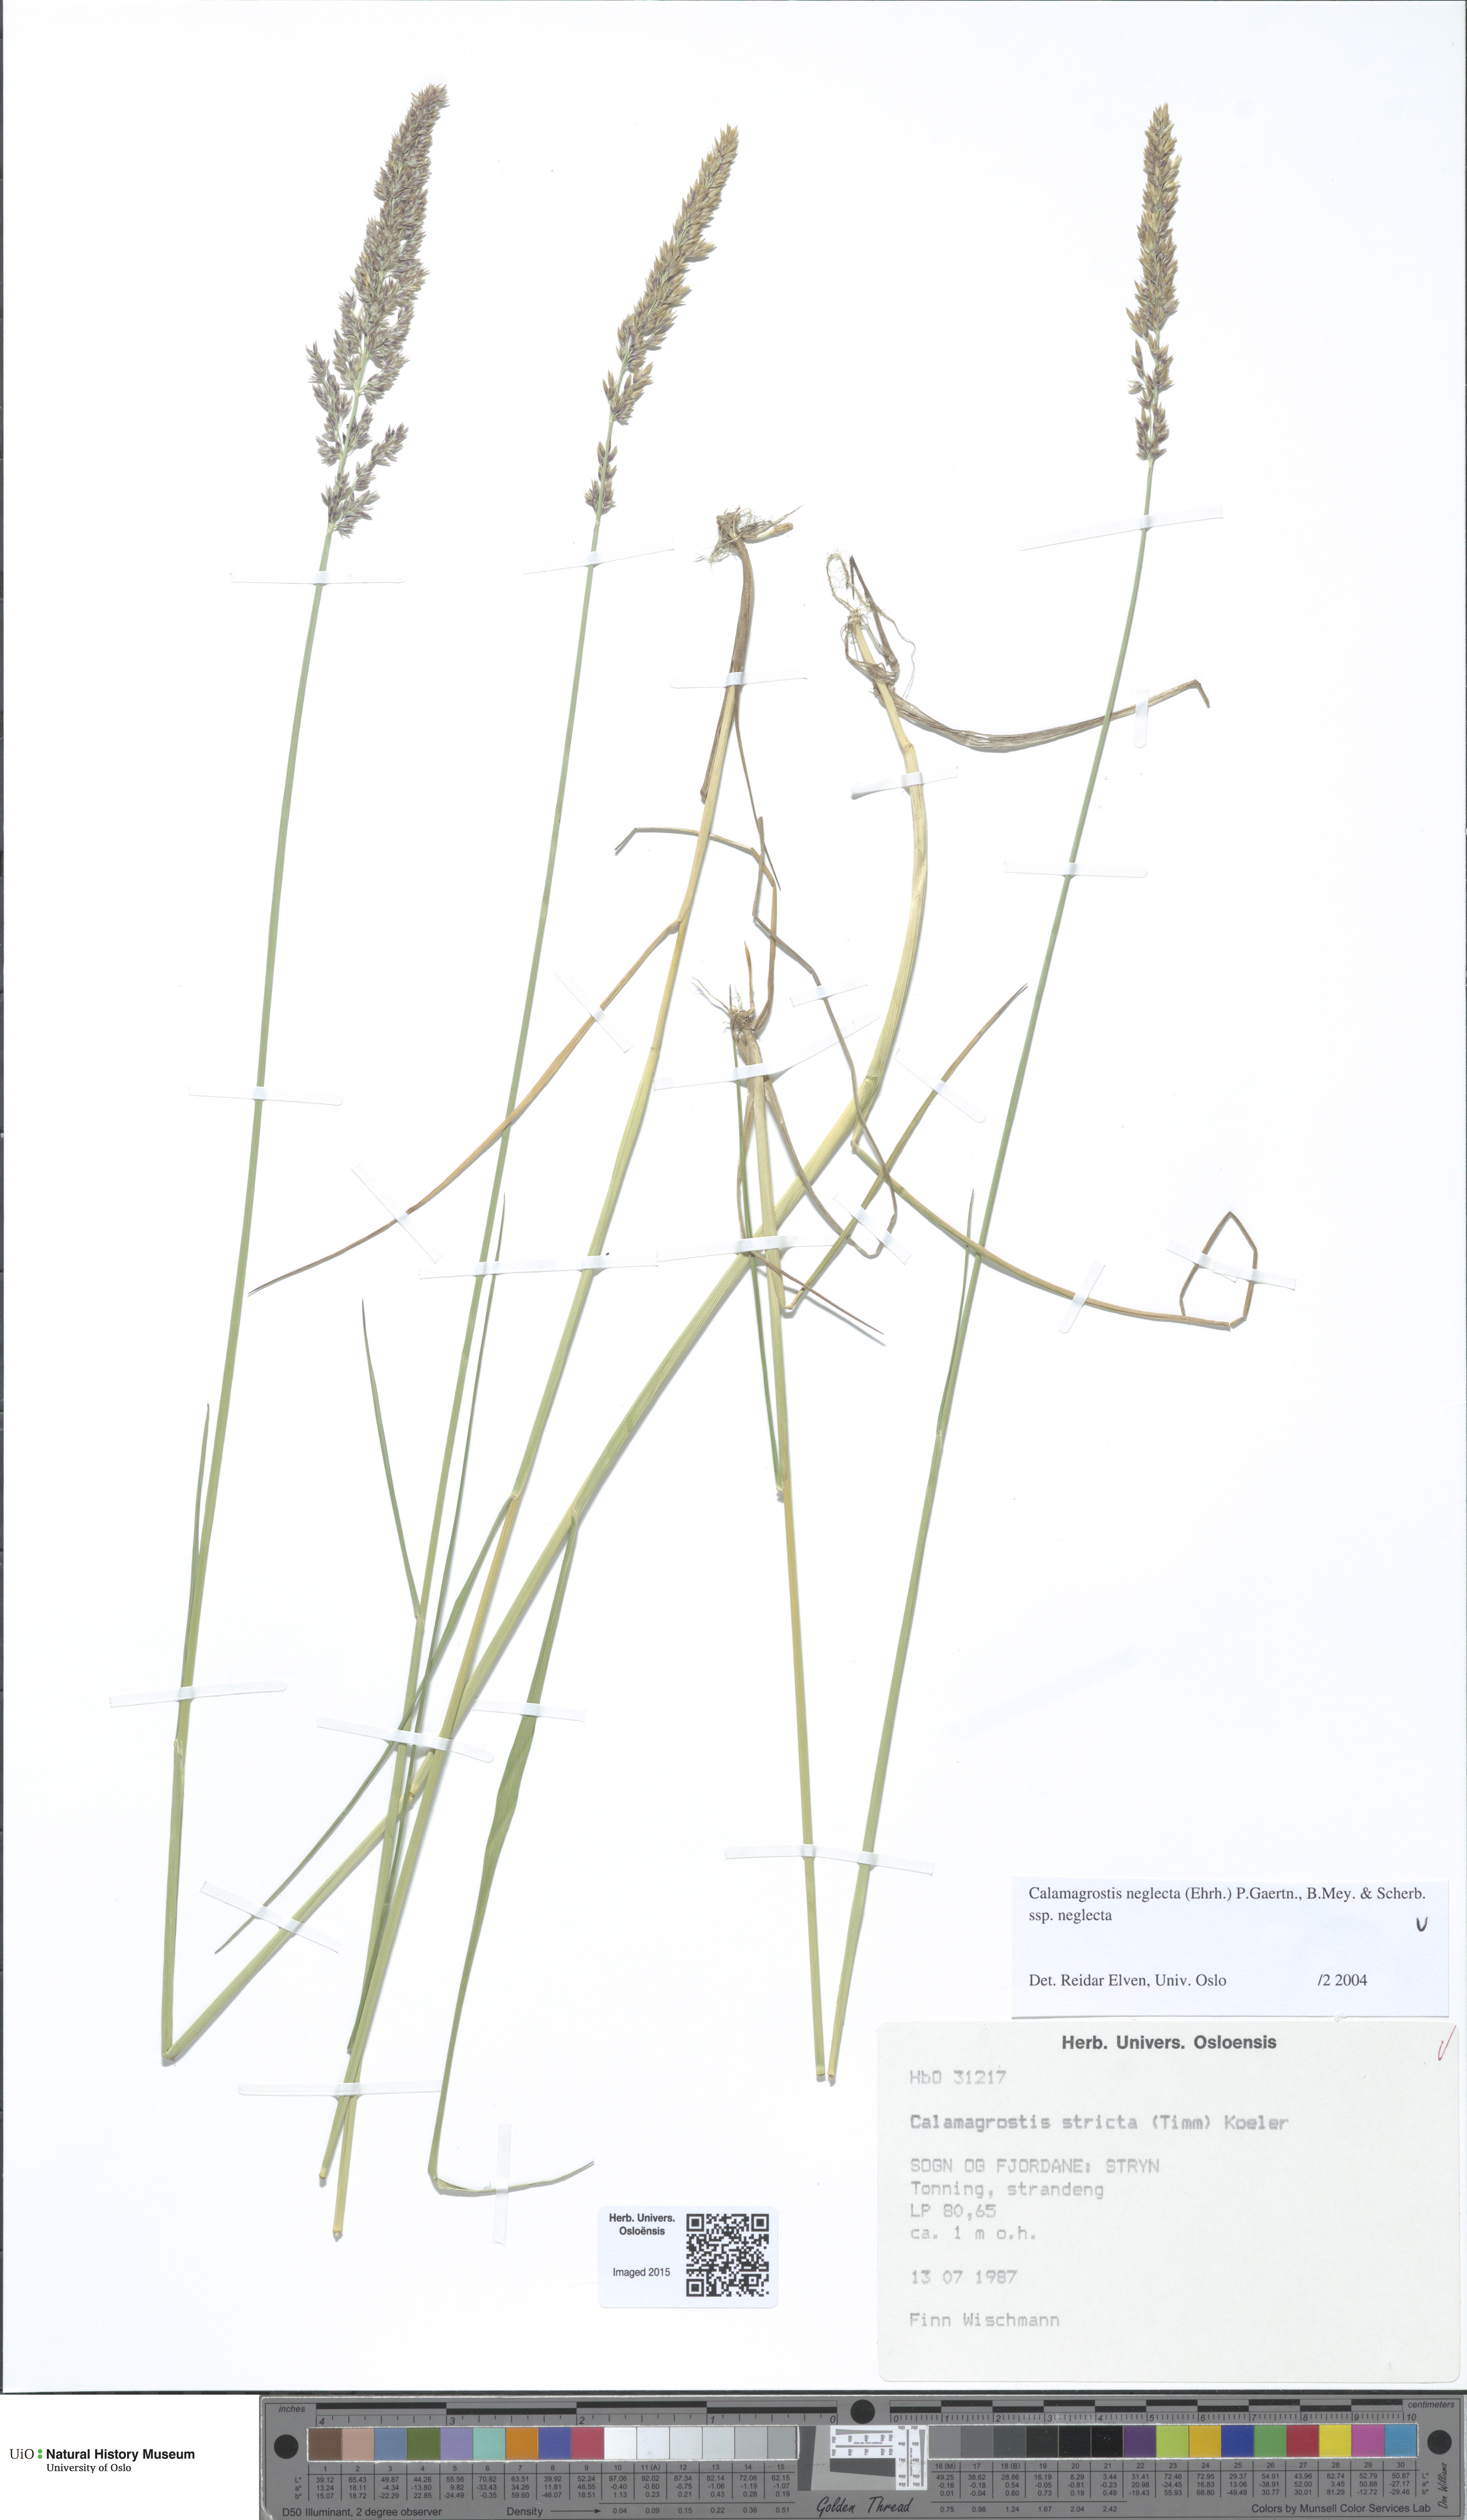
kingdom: Plantae
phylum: Tracheophyta
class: Liliopsida
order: Poales
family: Poaceae
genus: Achnatherum
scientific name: Achnatherum calamagrostis
